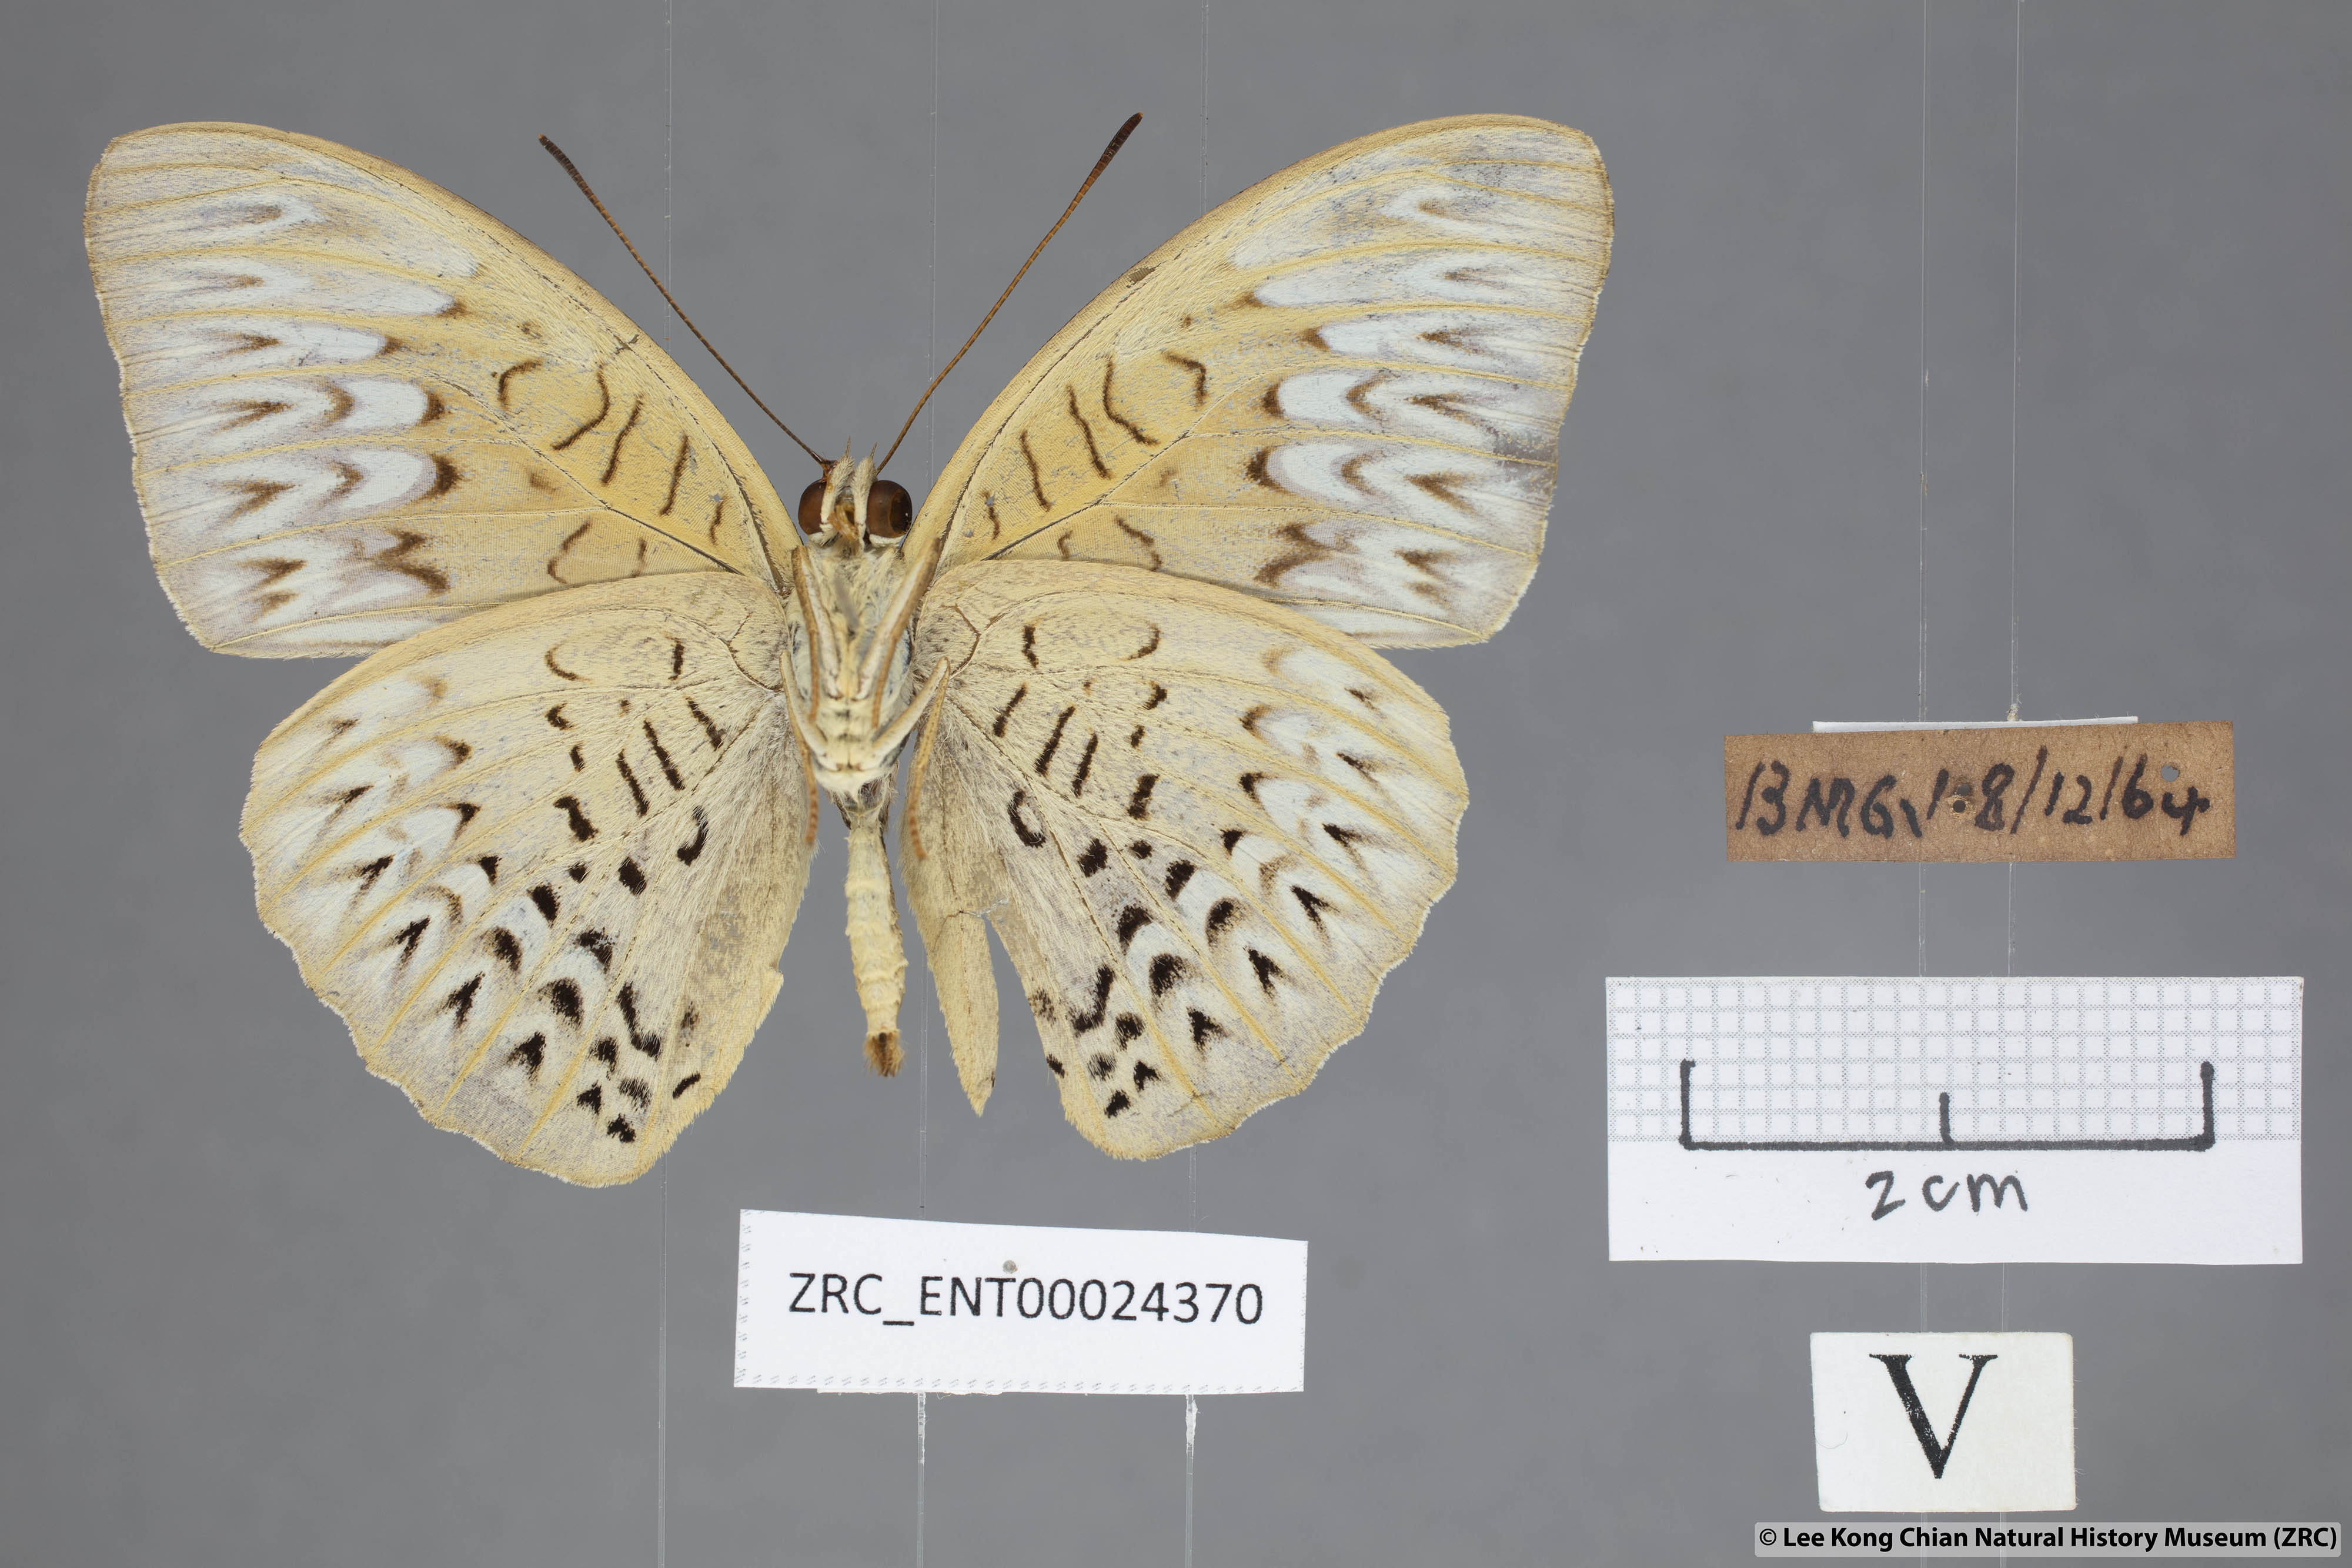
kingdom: Animalia
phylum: Arthropoda
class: Insecta
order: Lepidoptera
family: Nymphalidae
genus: Tanaecia
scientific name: Tanaecia aruna
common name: Short-banded viscount
